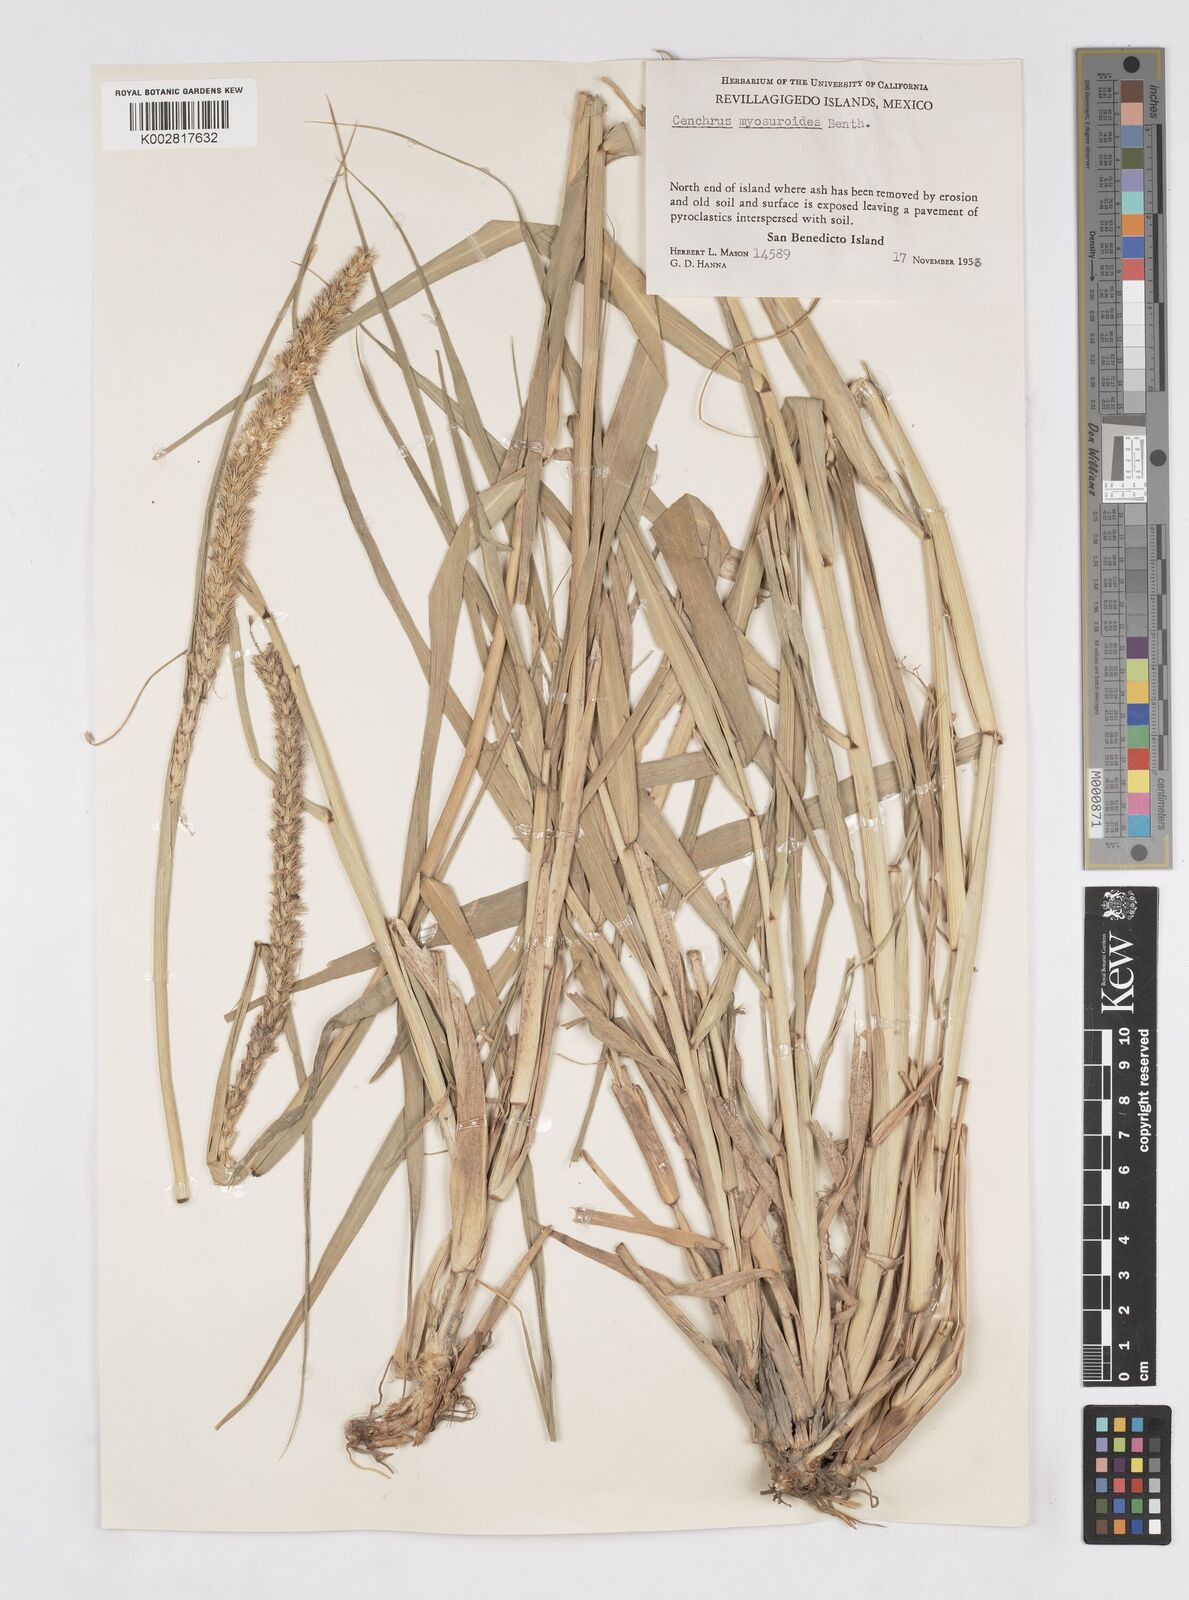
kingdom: Plantae
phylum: Tracheophyta
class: Liliopsida
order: Poales
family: Poaceae
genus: Cenchrus
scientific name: Cenchrus myosuroides
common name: Big sandbur
